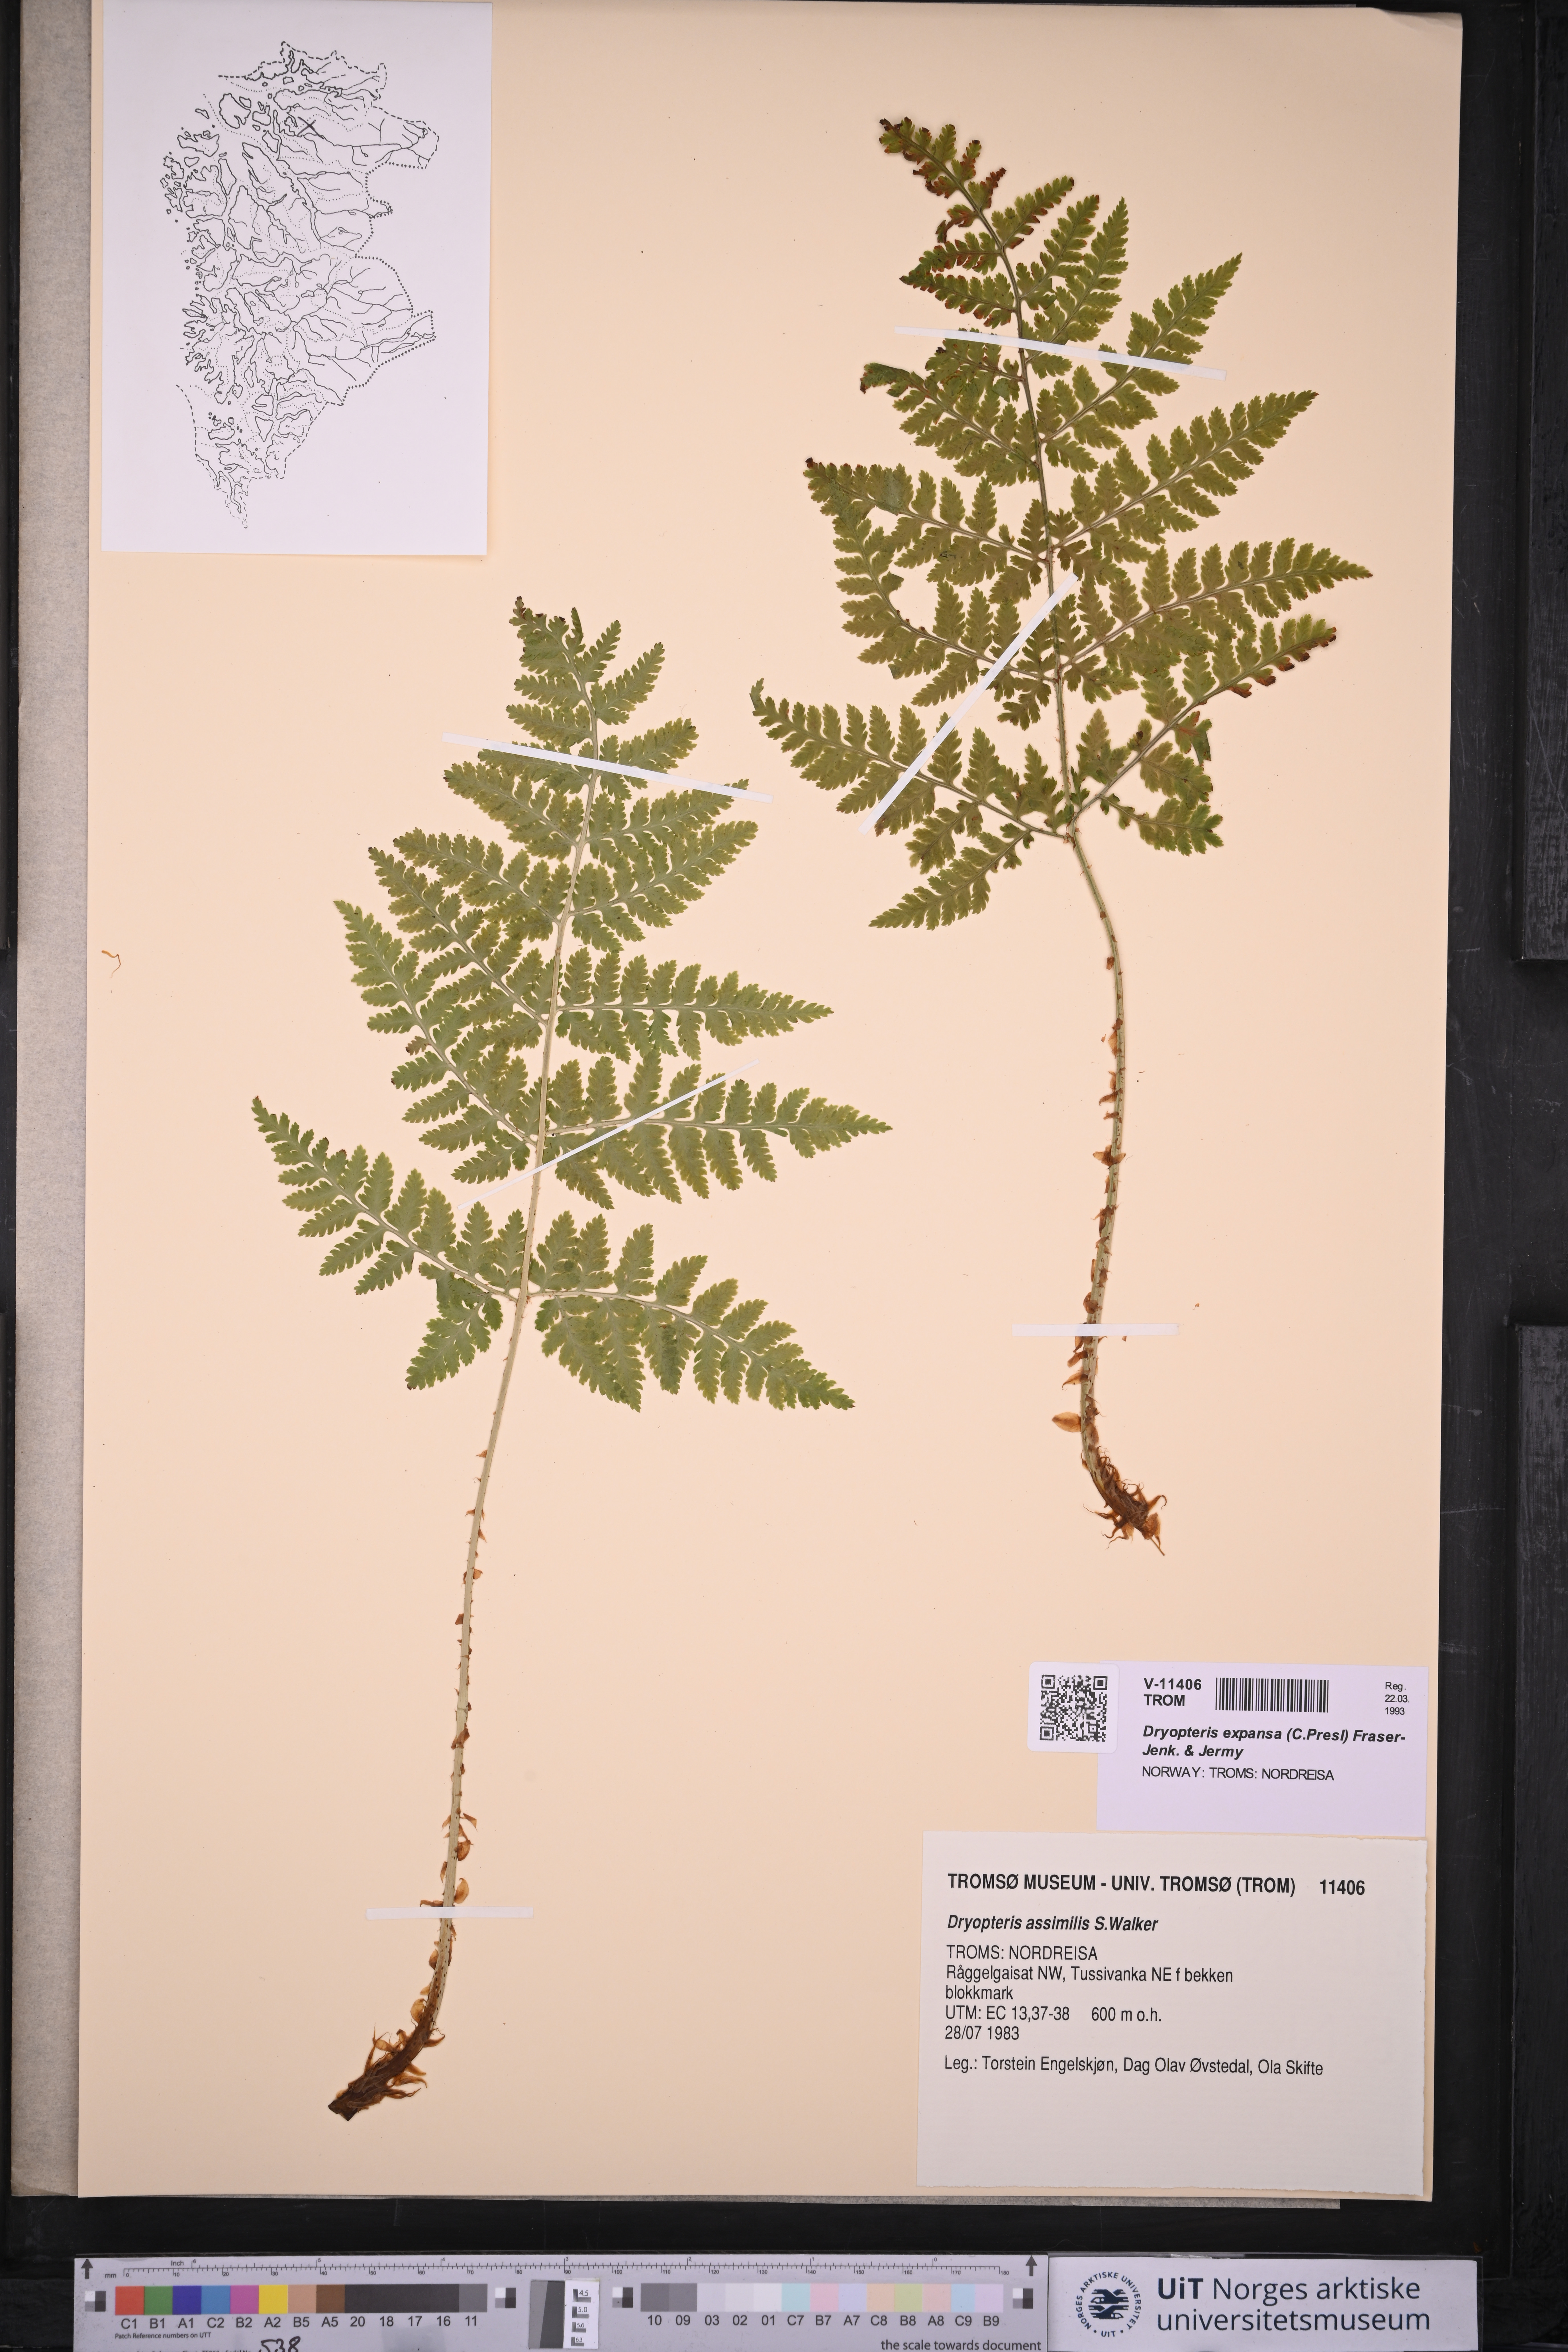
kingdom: Plantae
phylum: Tracheophyta
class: Polypodiopsida
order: Polypodiales
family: Dryopteridaceae
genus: Dryopteris
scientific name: Dryopteris expansa
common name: Northern buckler fern
